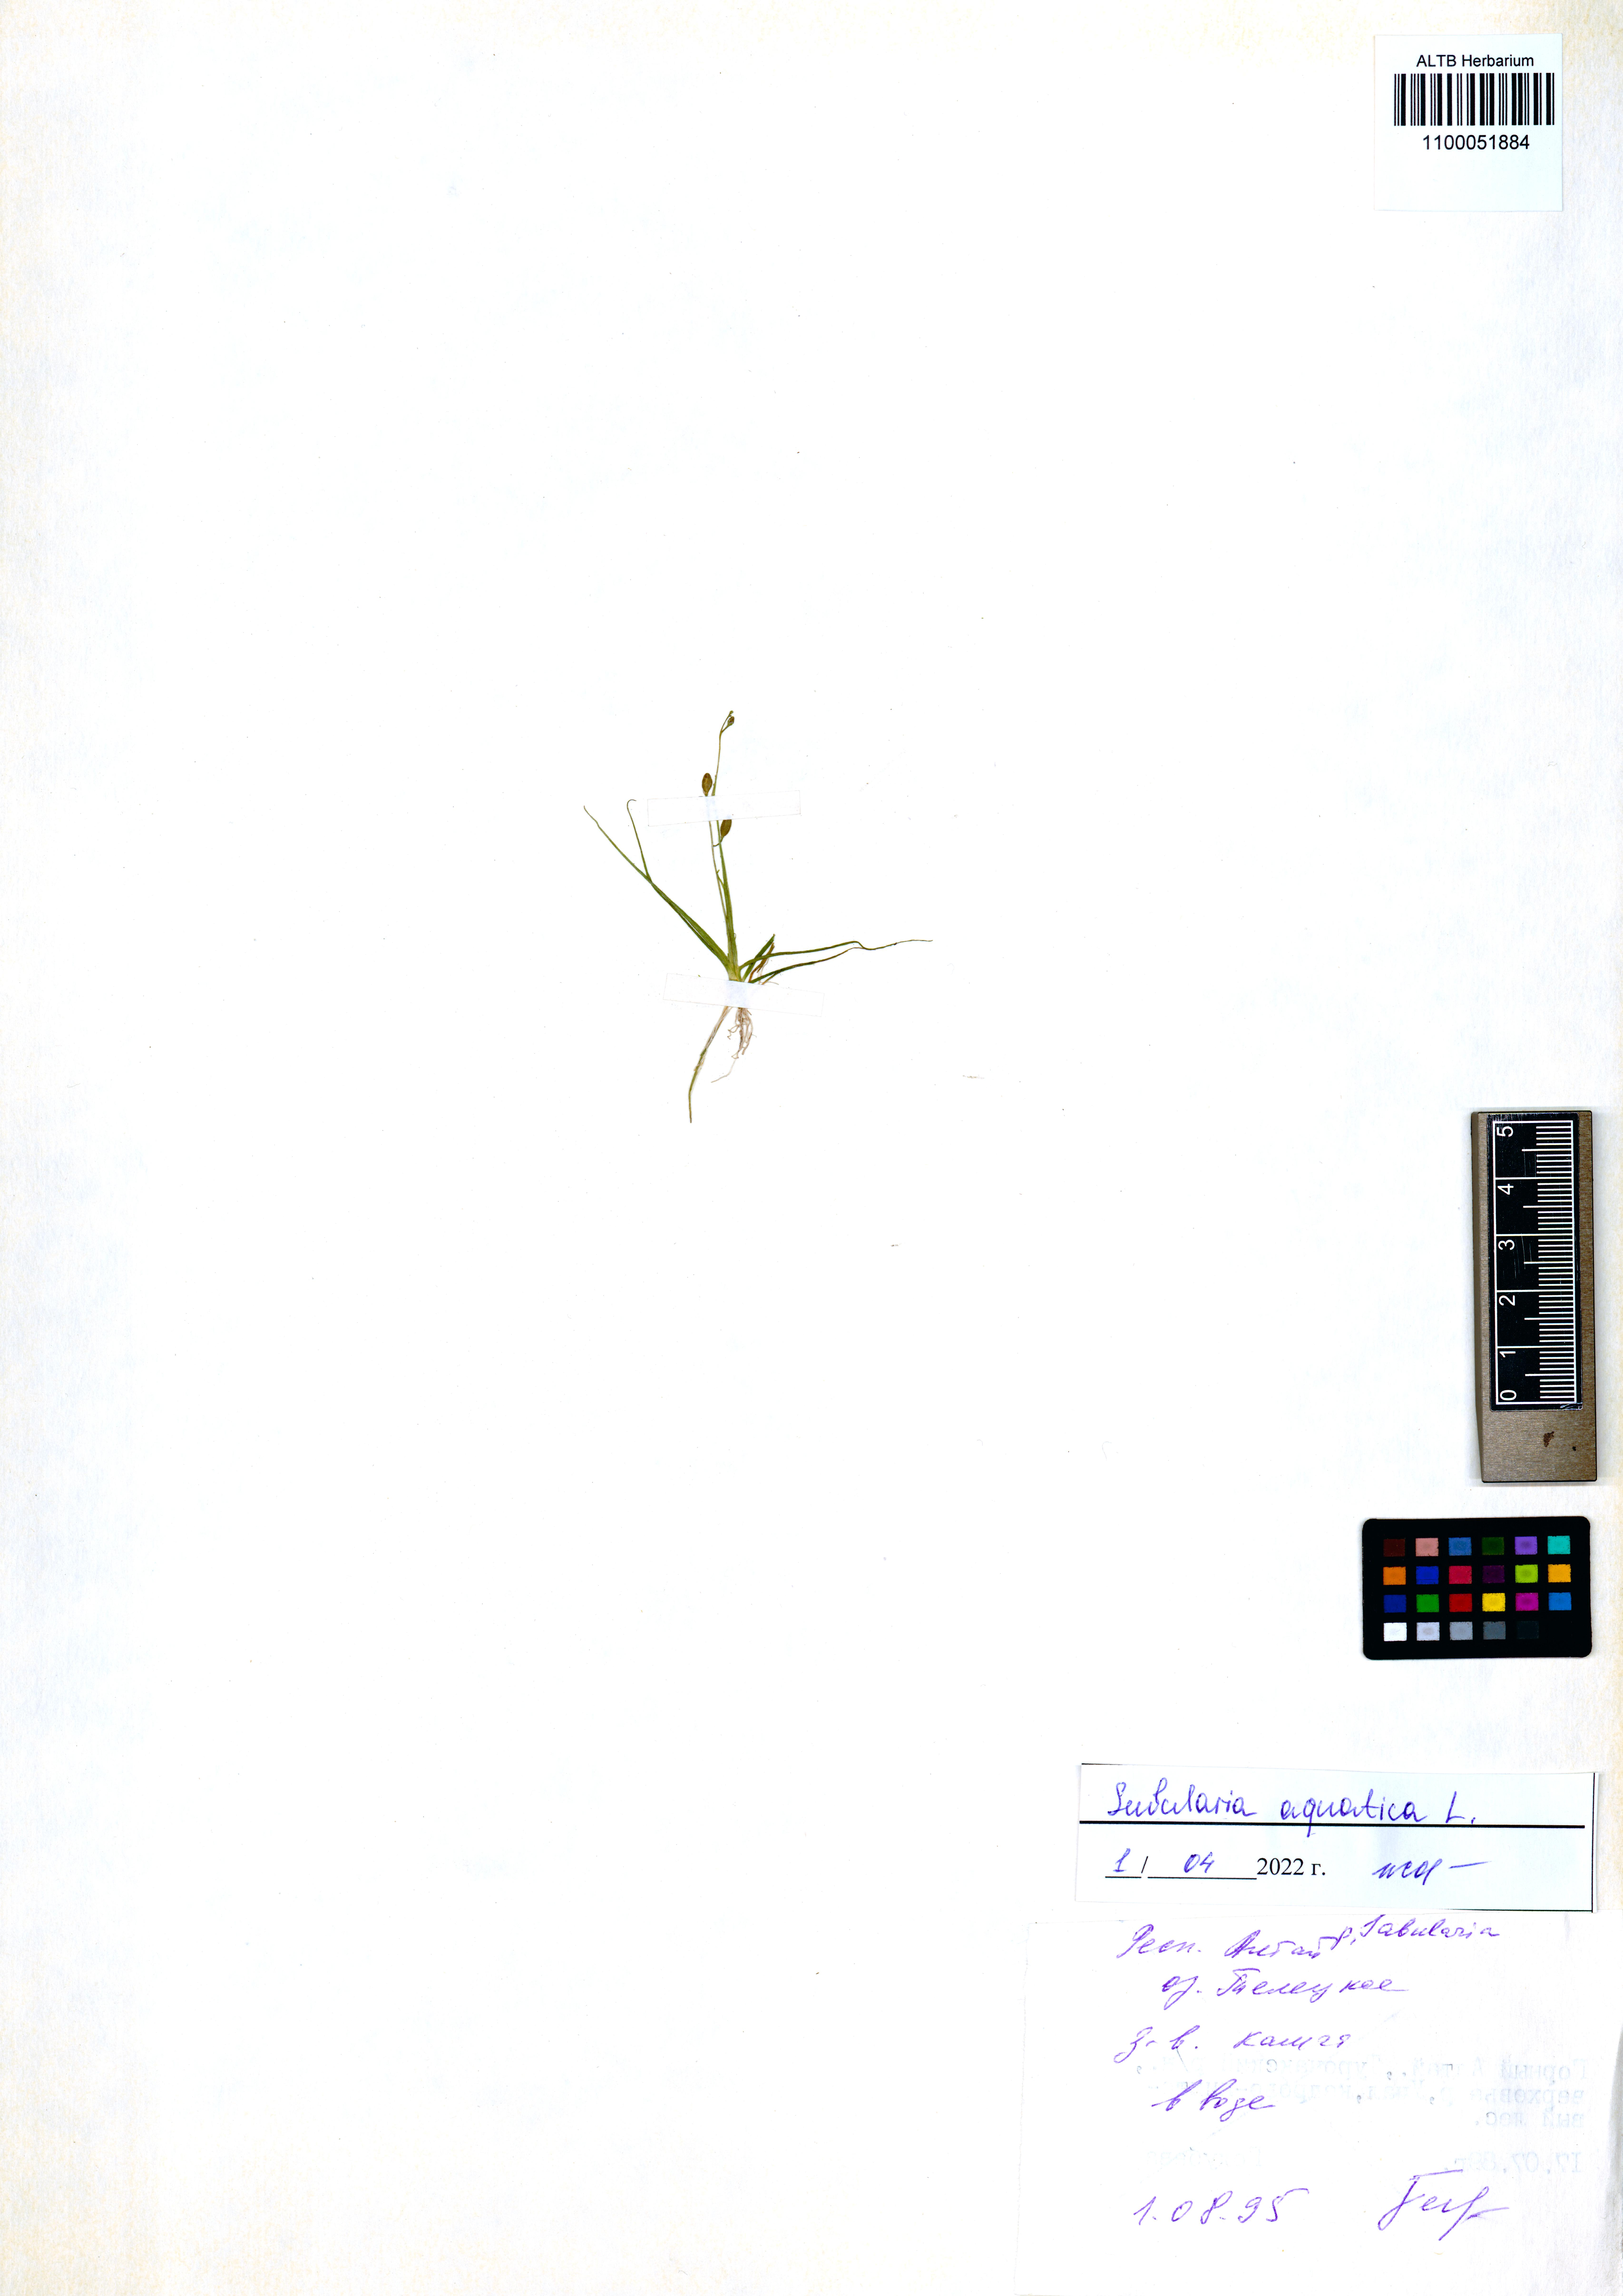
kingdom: Plantae
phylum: Tracheophyta
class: Magnoliopsida
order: Brassicales
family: Brassicaceae
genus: Subularia
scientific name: Subularia aquatica
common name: Awlwort
